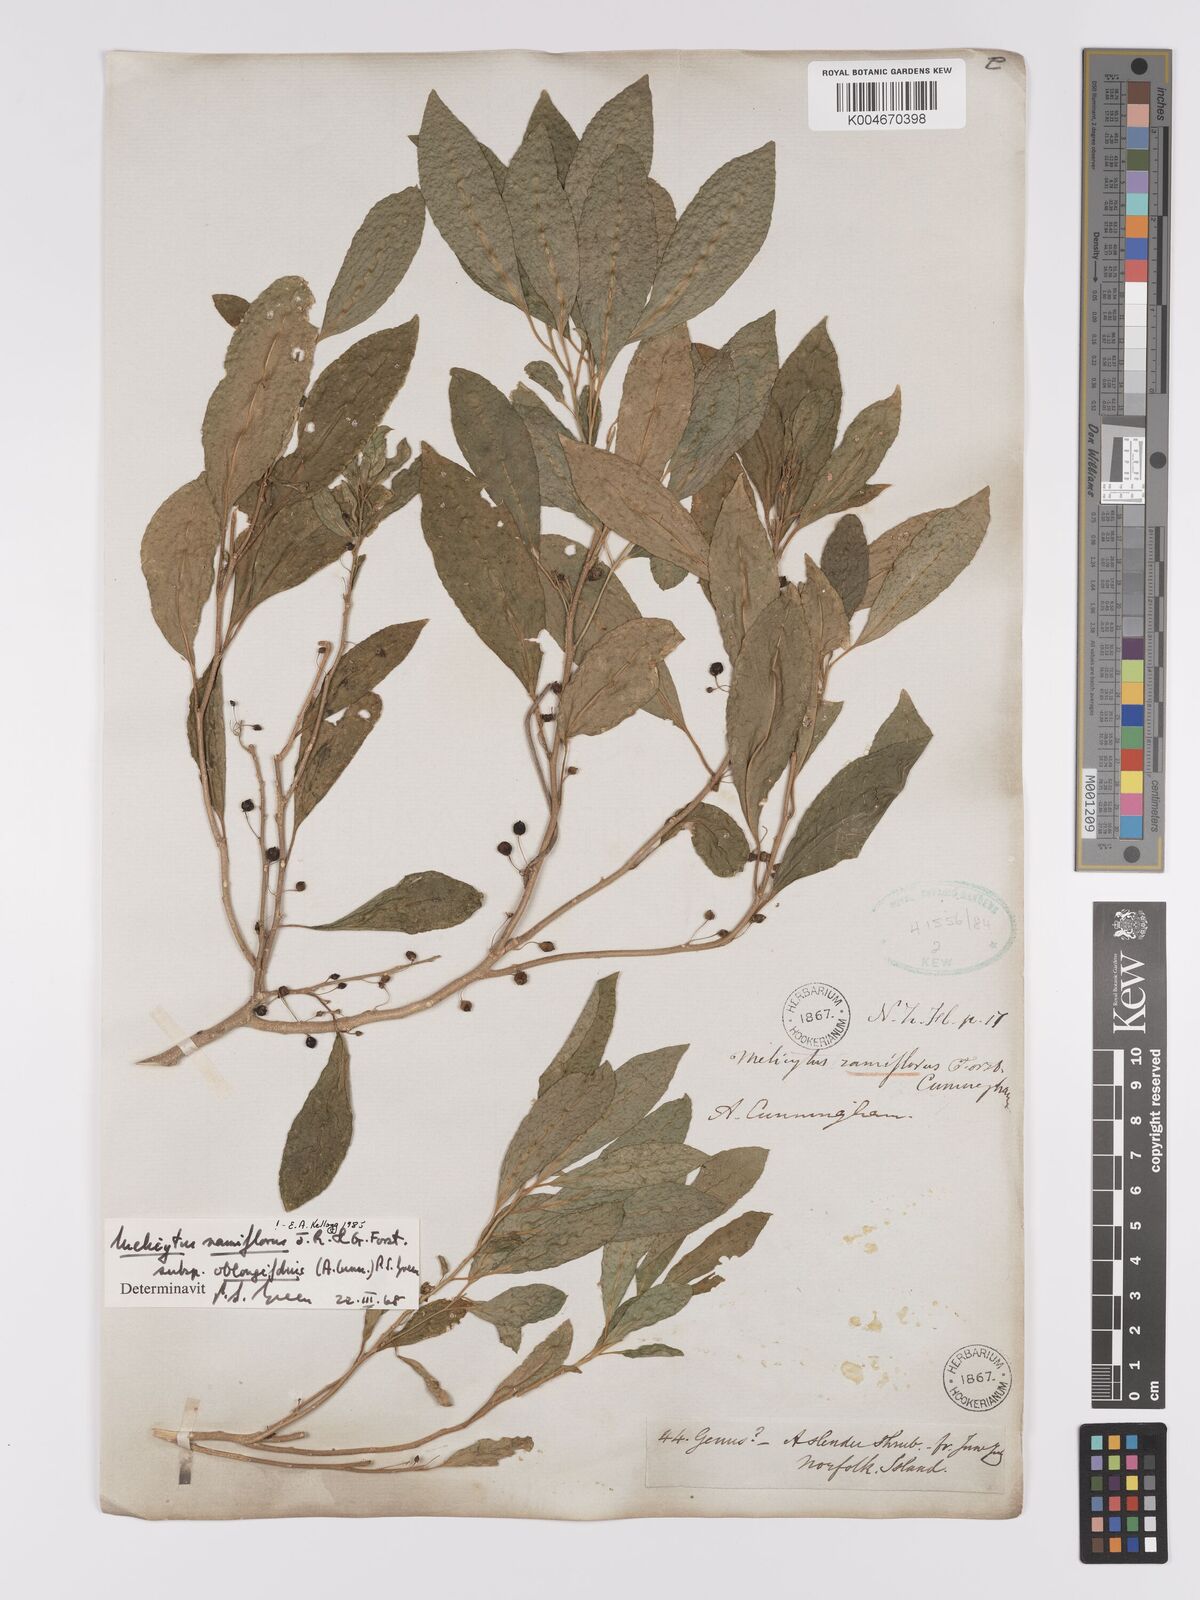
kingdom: Plantae
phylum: Tracheophyta
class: Magnoliopsida
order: Malpighiales
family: Violaceae
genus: Melicytus
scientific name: Melicytus ramiflorus
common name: Mahoe
